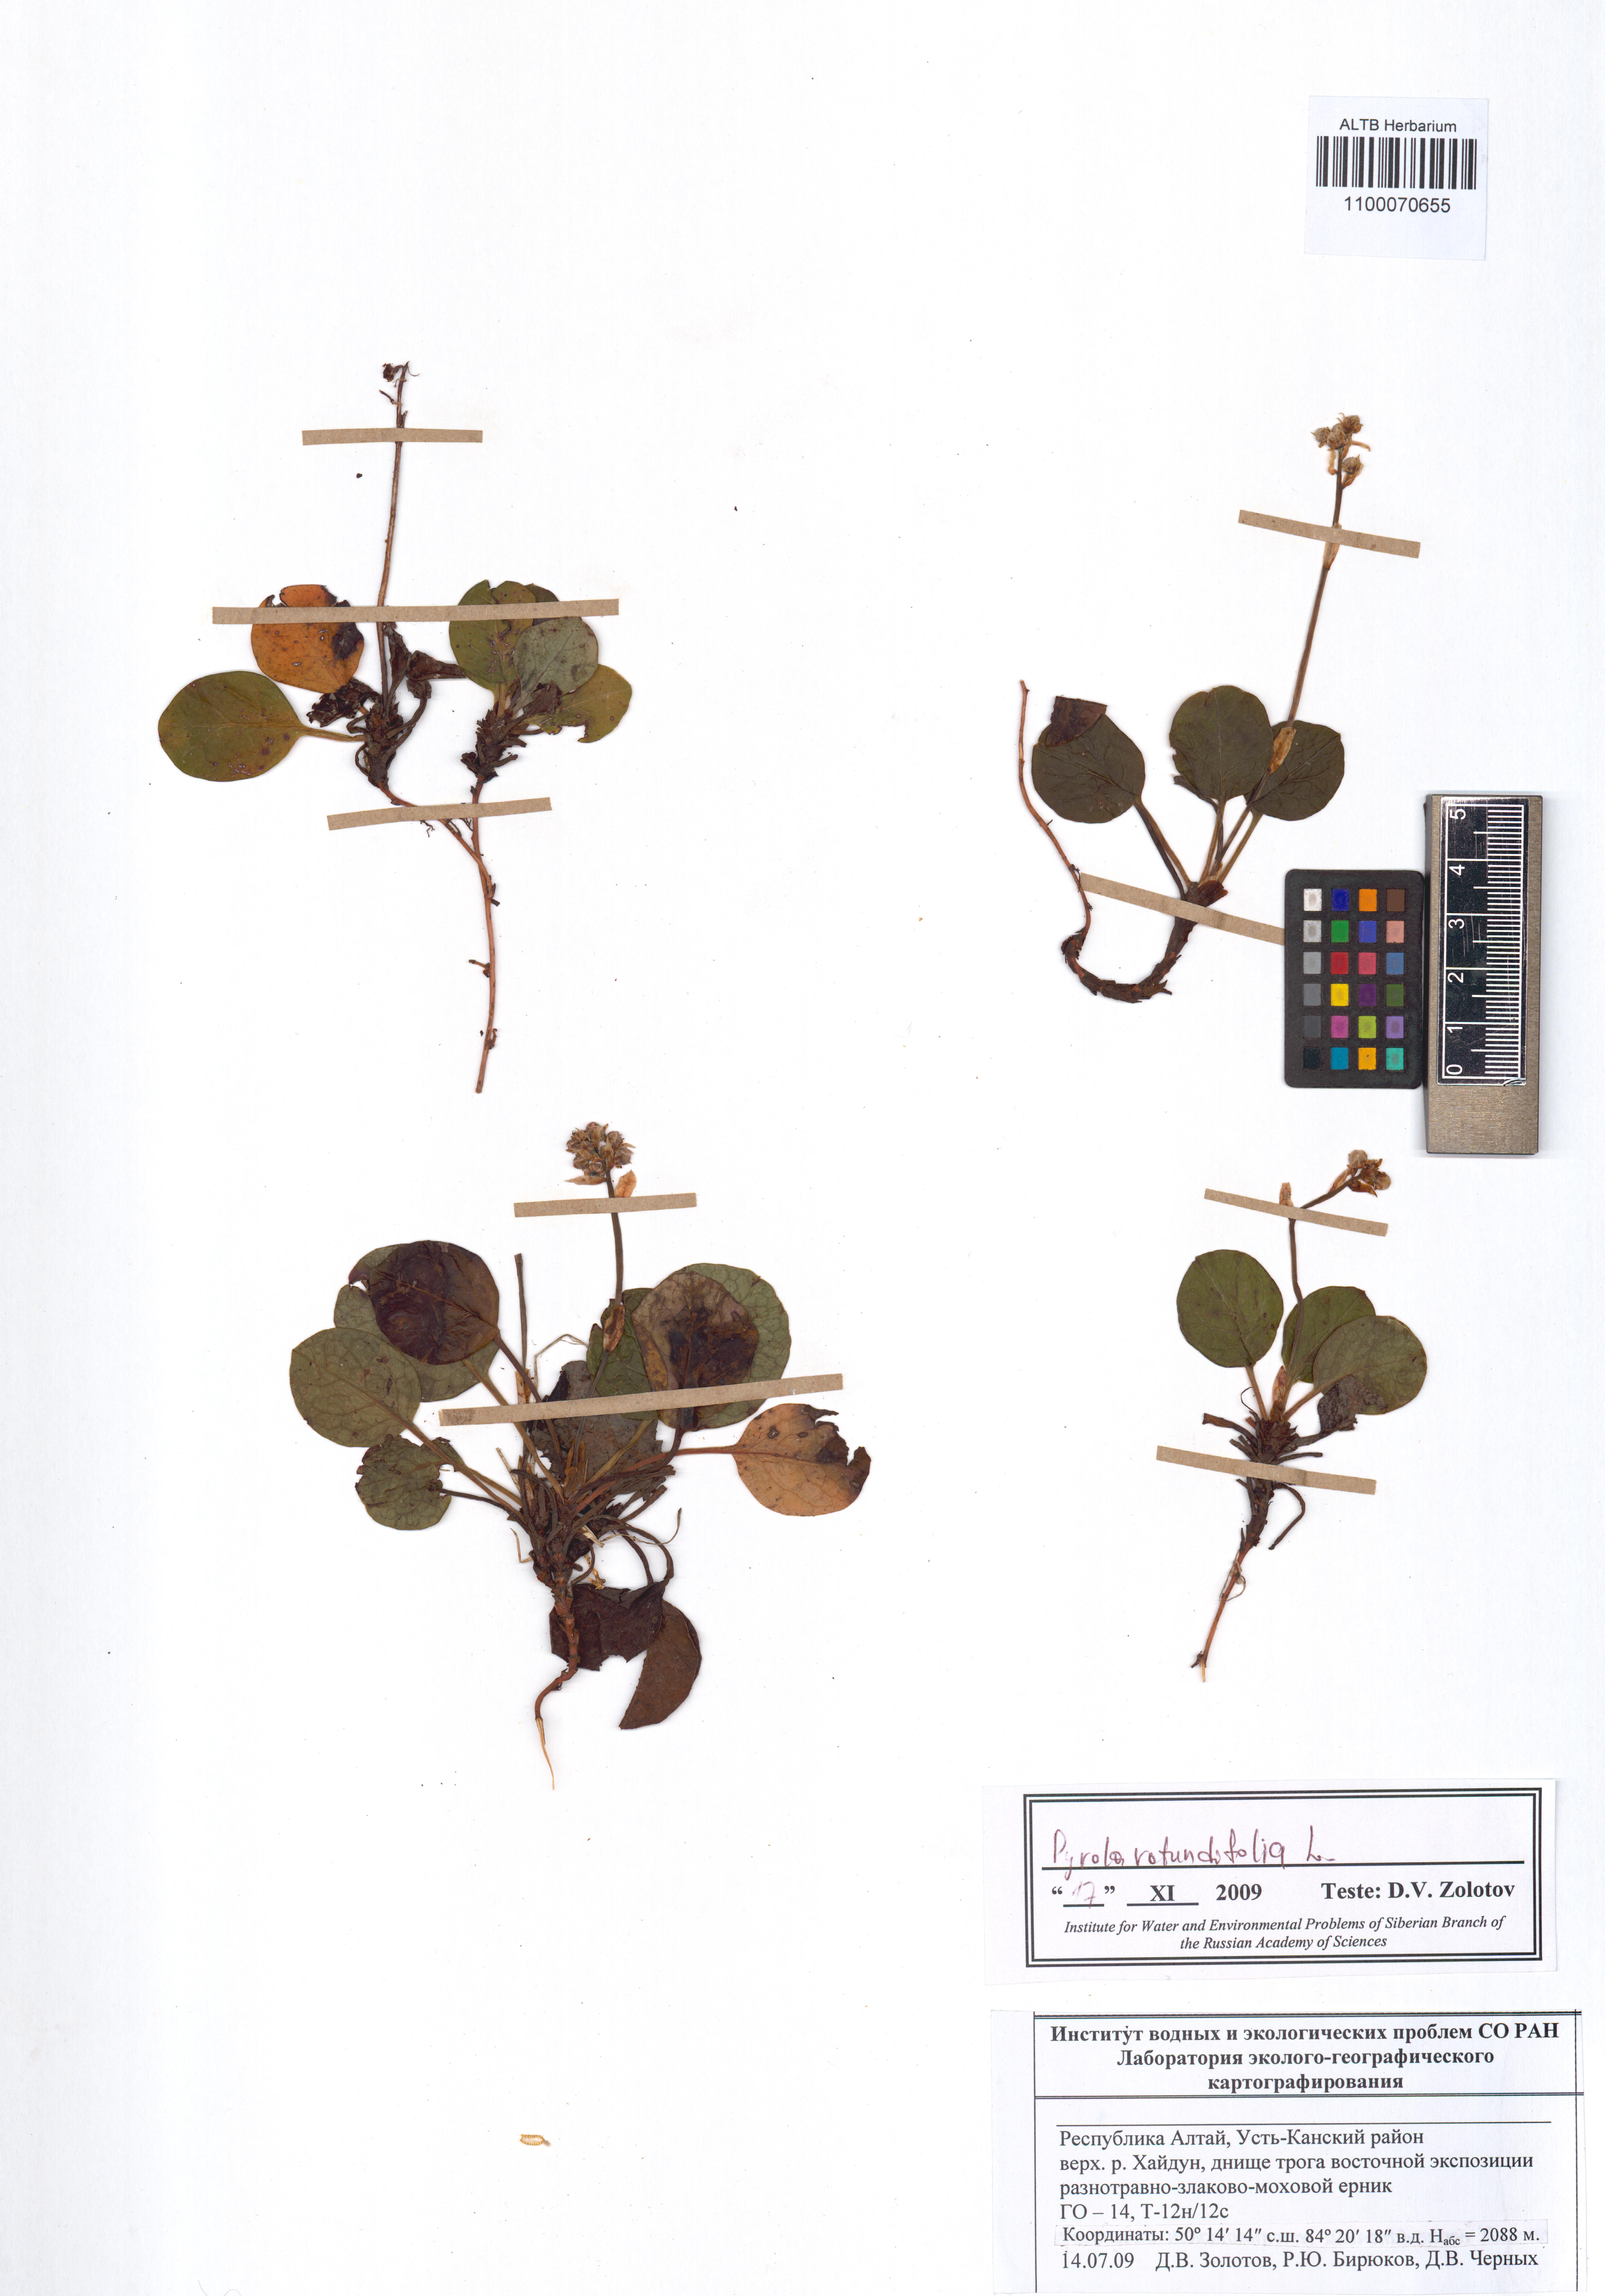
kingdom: Plantae
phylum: Tracheophyta
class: Magnoliopsida
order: Ericales
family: Ericaceae
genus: Pyrola
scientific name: Pyrola rotundifolia
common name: Round-leaved wintergreen
